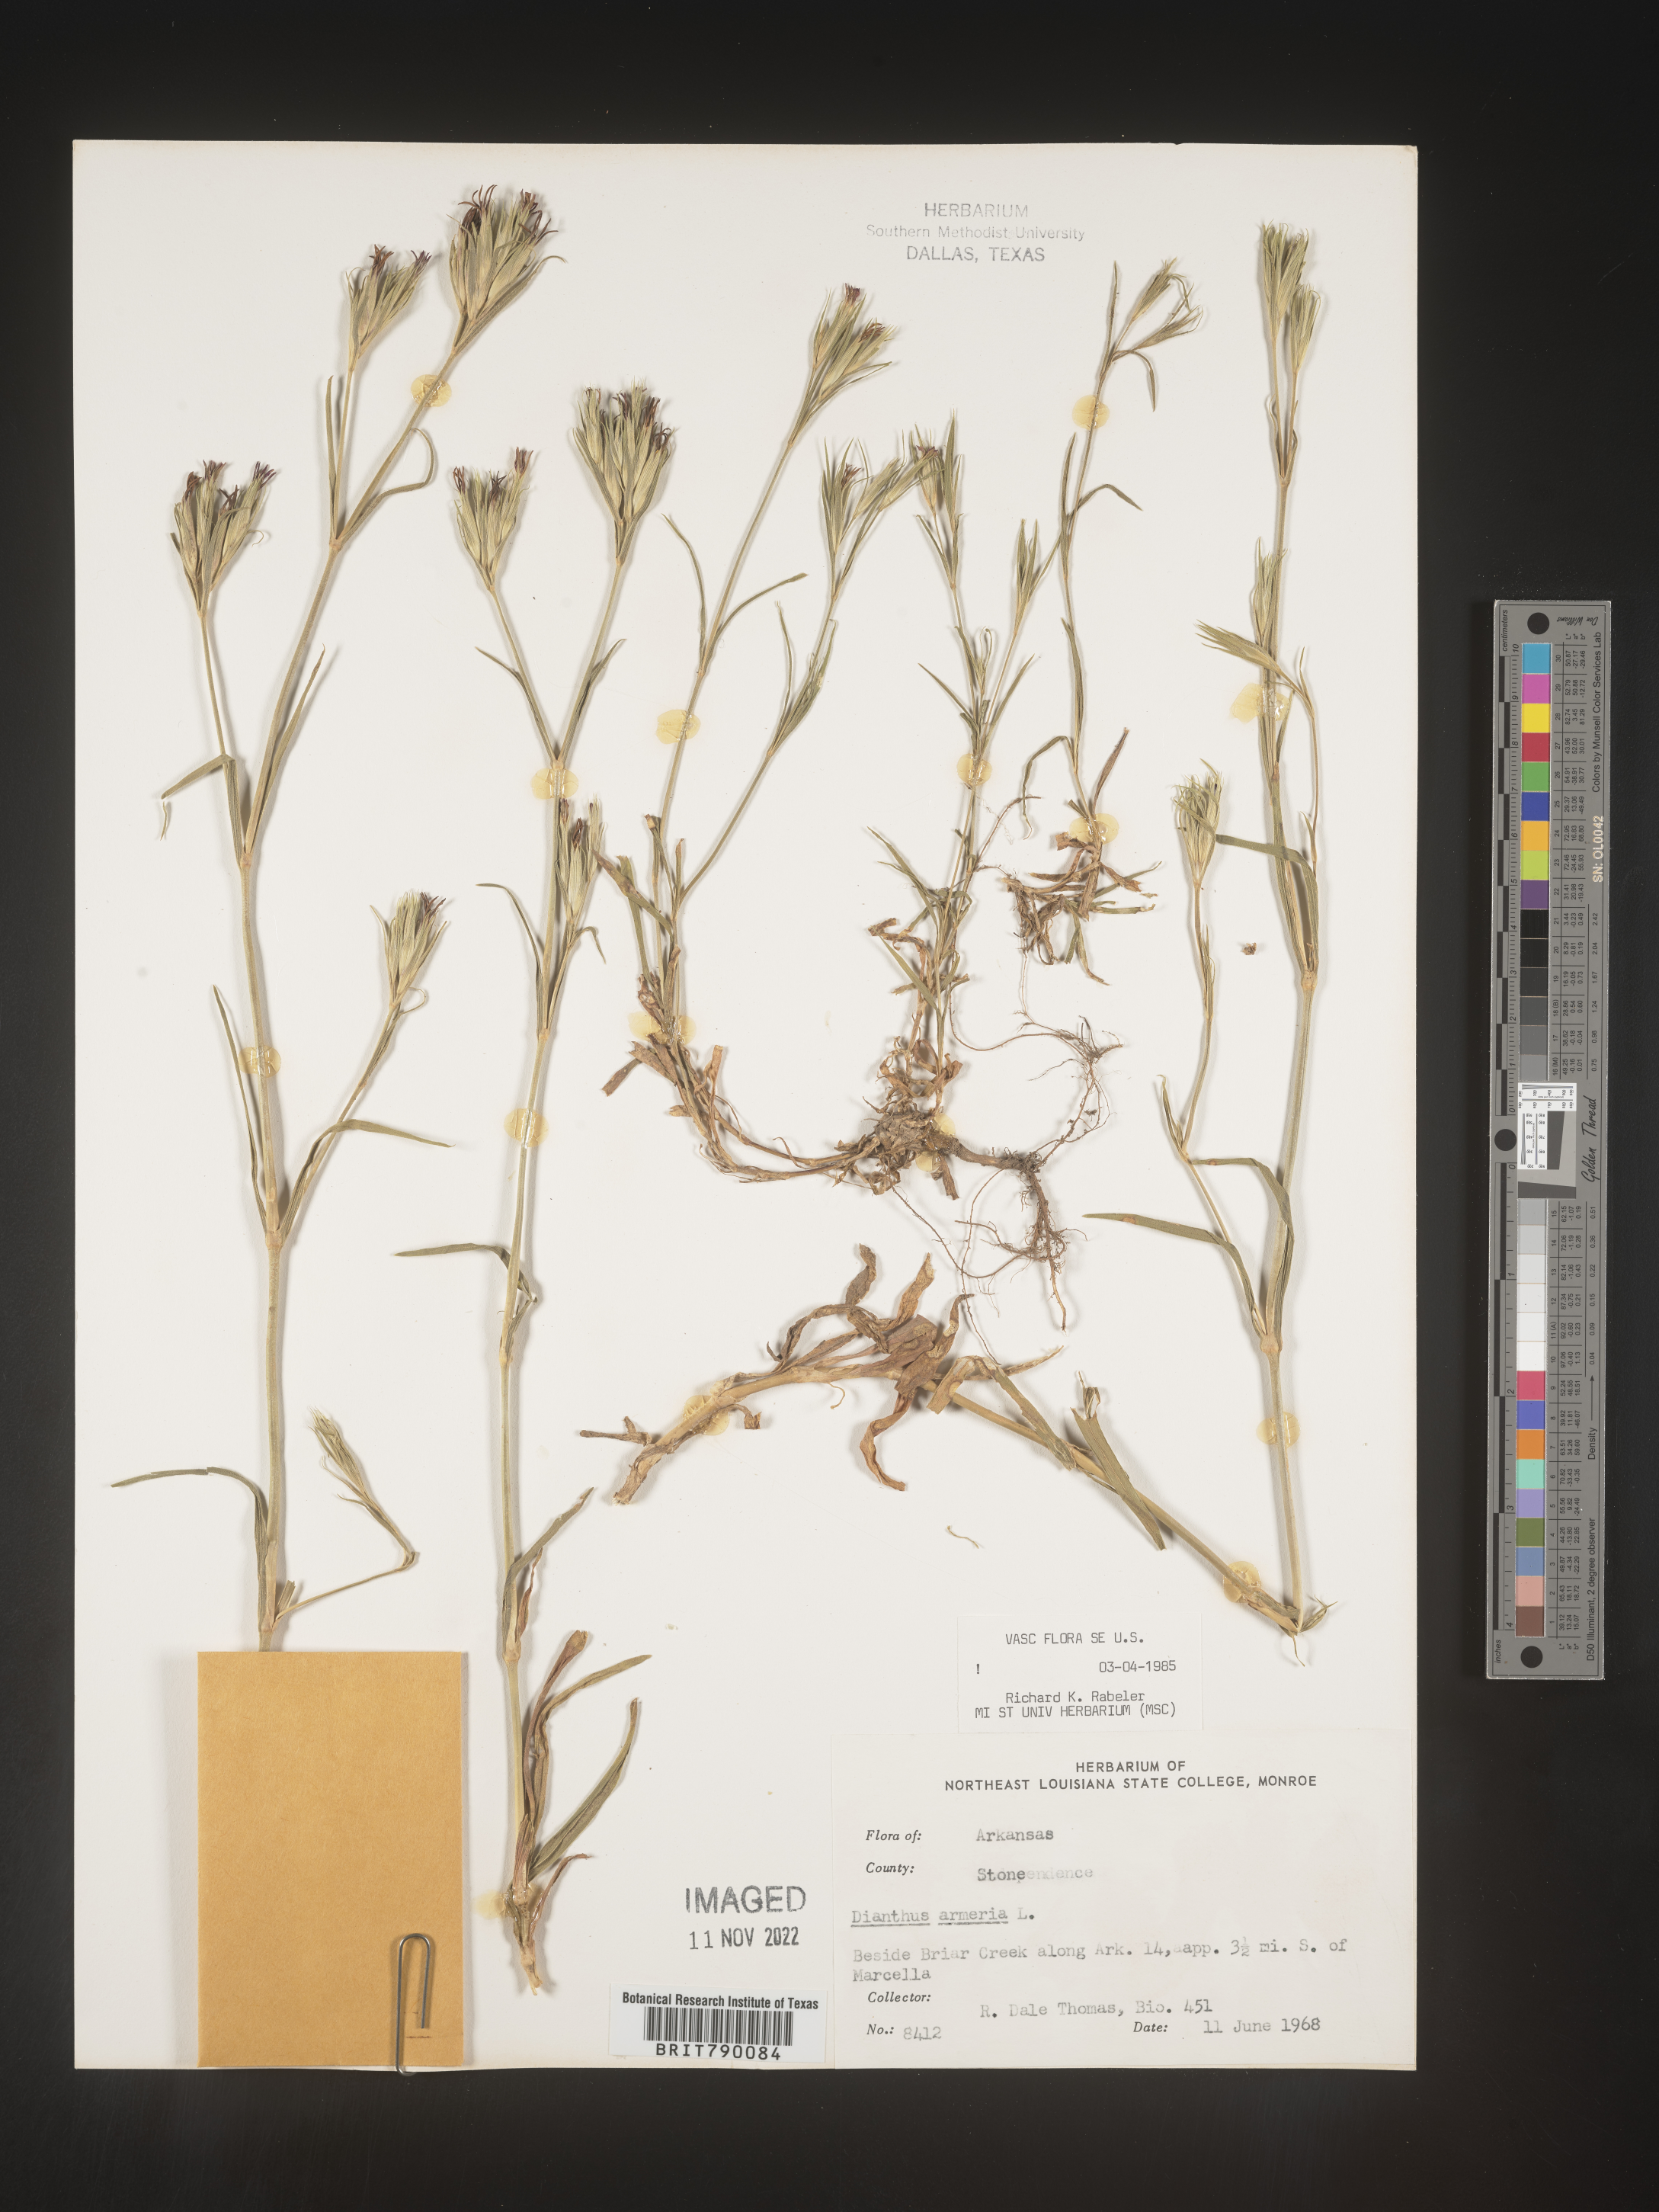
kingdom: Plantae
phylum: Tracheophyta
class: Magnoliopsida
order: Caryophyllales
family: Caryophyllaceae
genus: Dianthus
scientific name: Dianthus armeria
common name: Deptford pink
